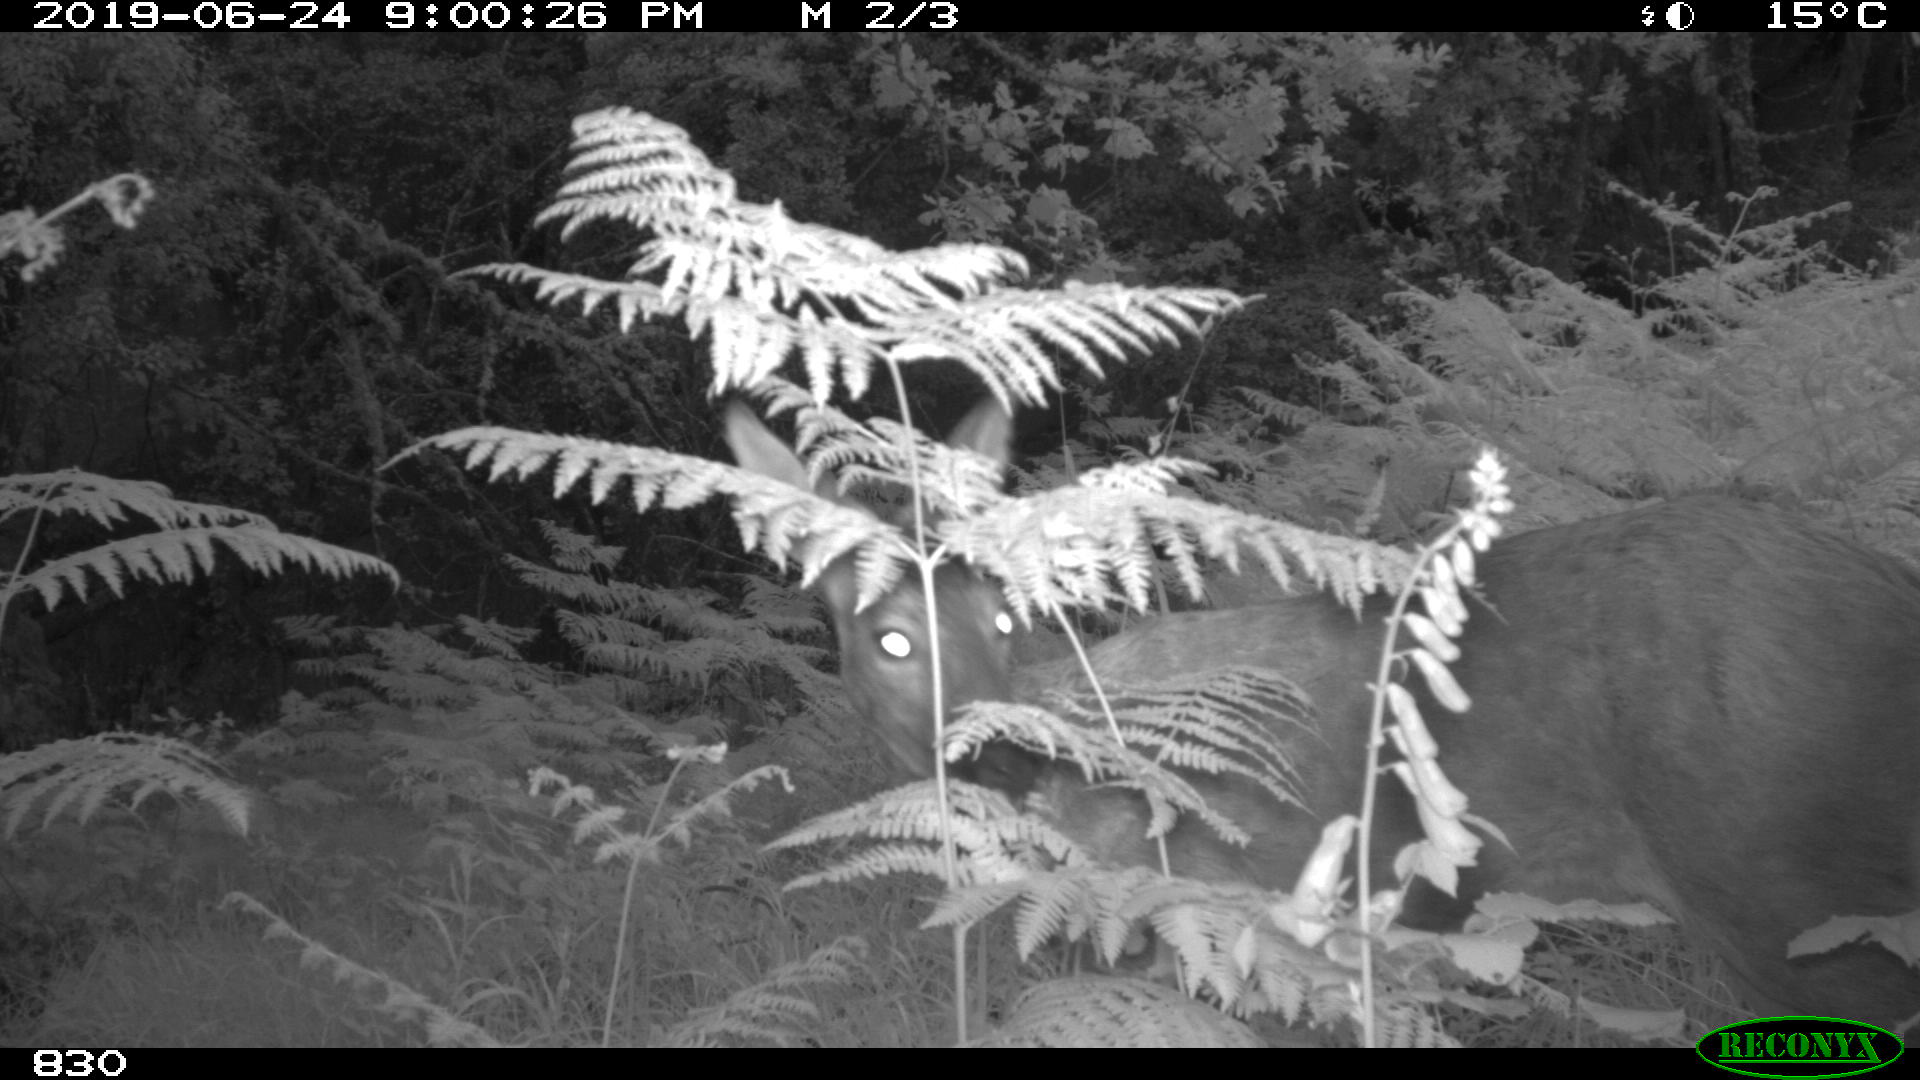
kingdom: Animalia
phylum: Chordata
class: Mammalia
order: Artiodactyla
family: Cervidae
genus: Capreolus
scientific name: Capreolus capreolus
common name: Western roe deer
